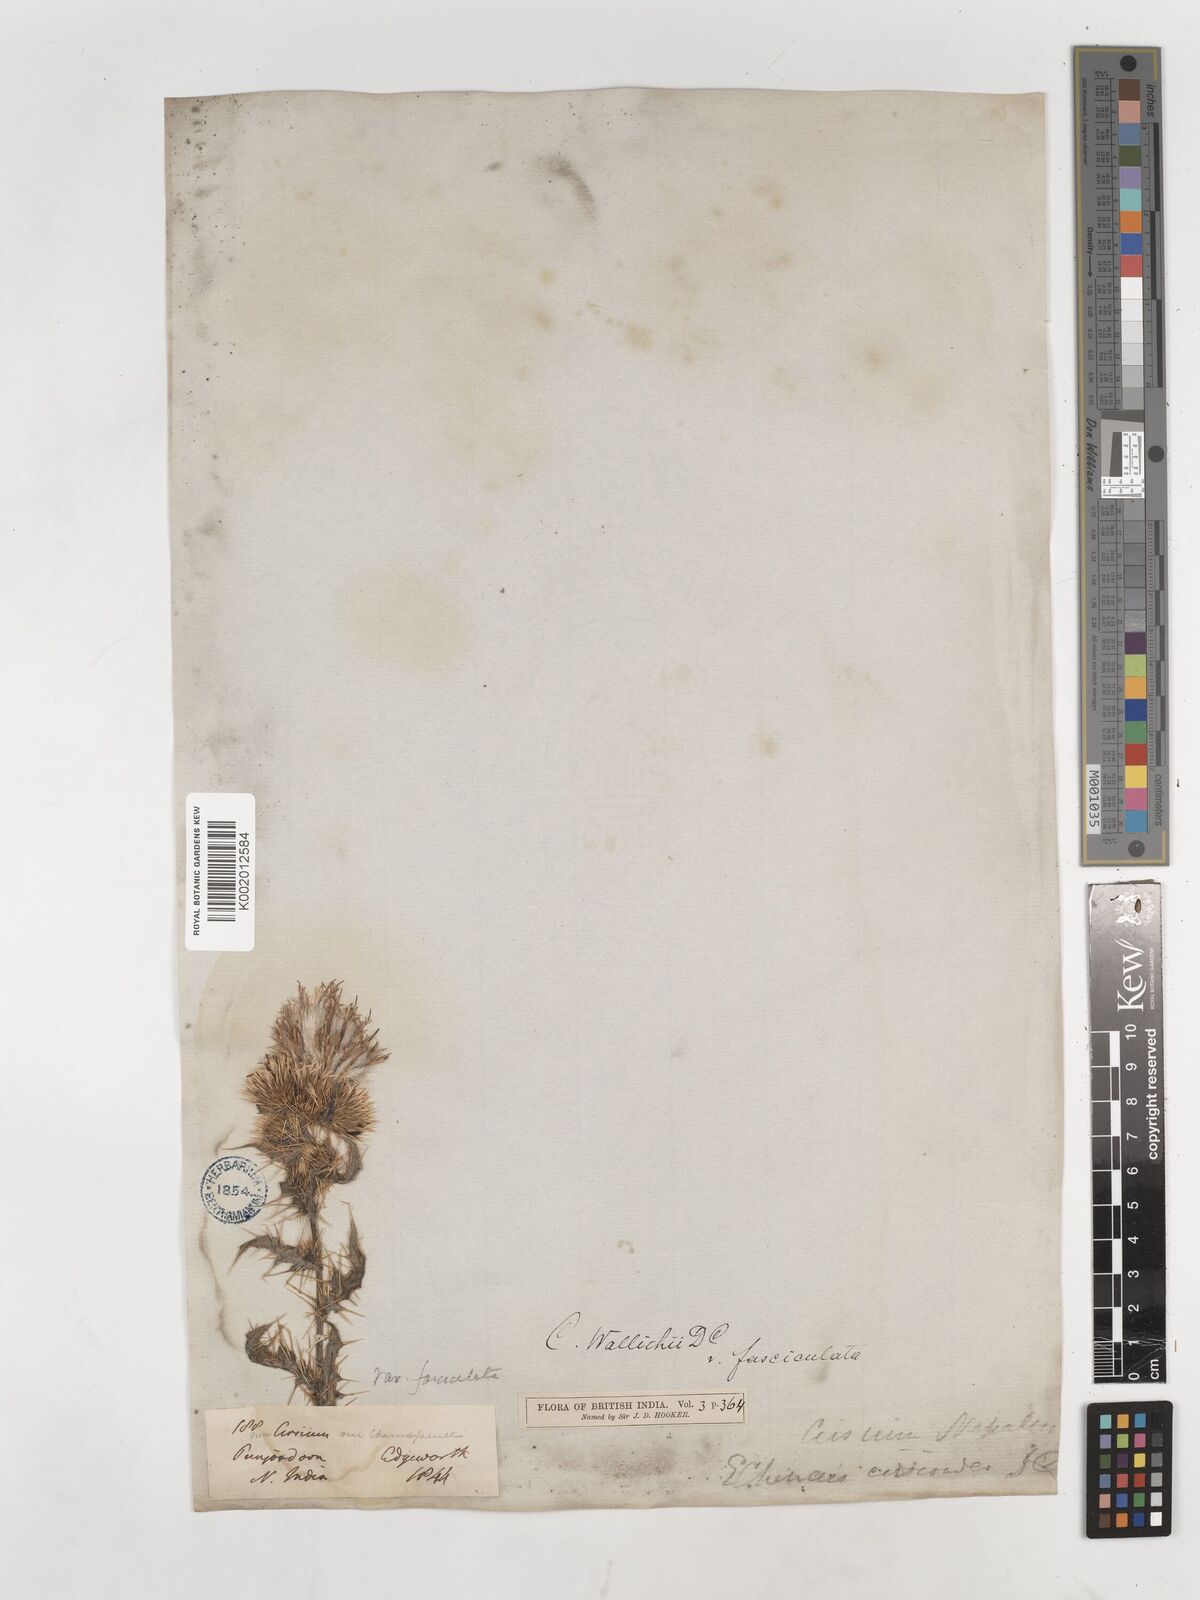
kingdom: Plantae
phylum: Tracheophyta
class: Magnoliopsida
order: Asterales
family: Asteraceae
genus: Cirsium
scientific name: Cirsium wallichii
